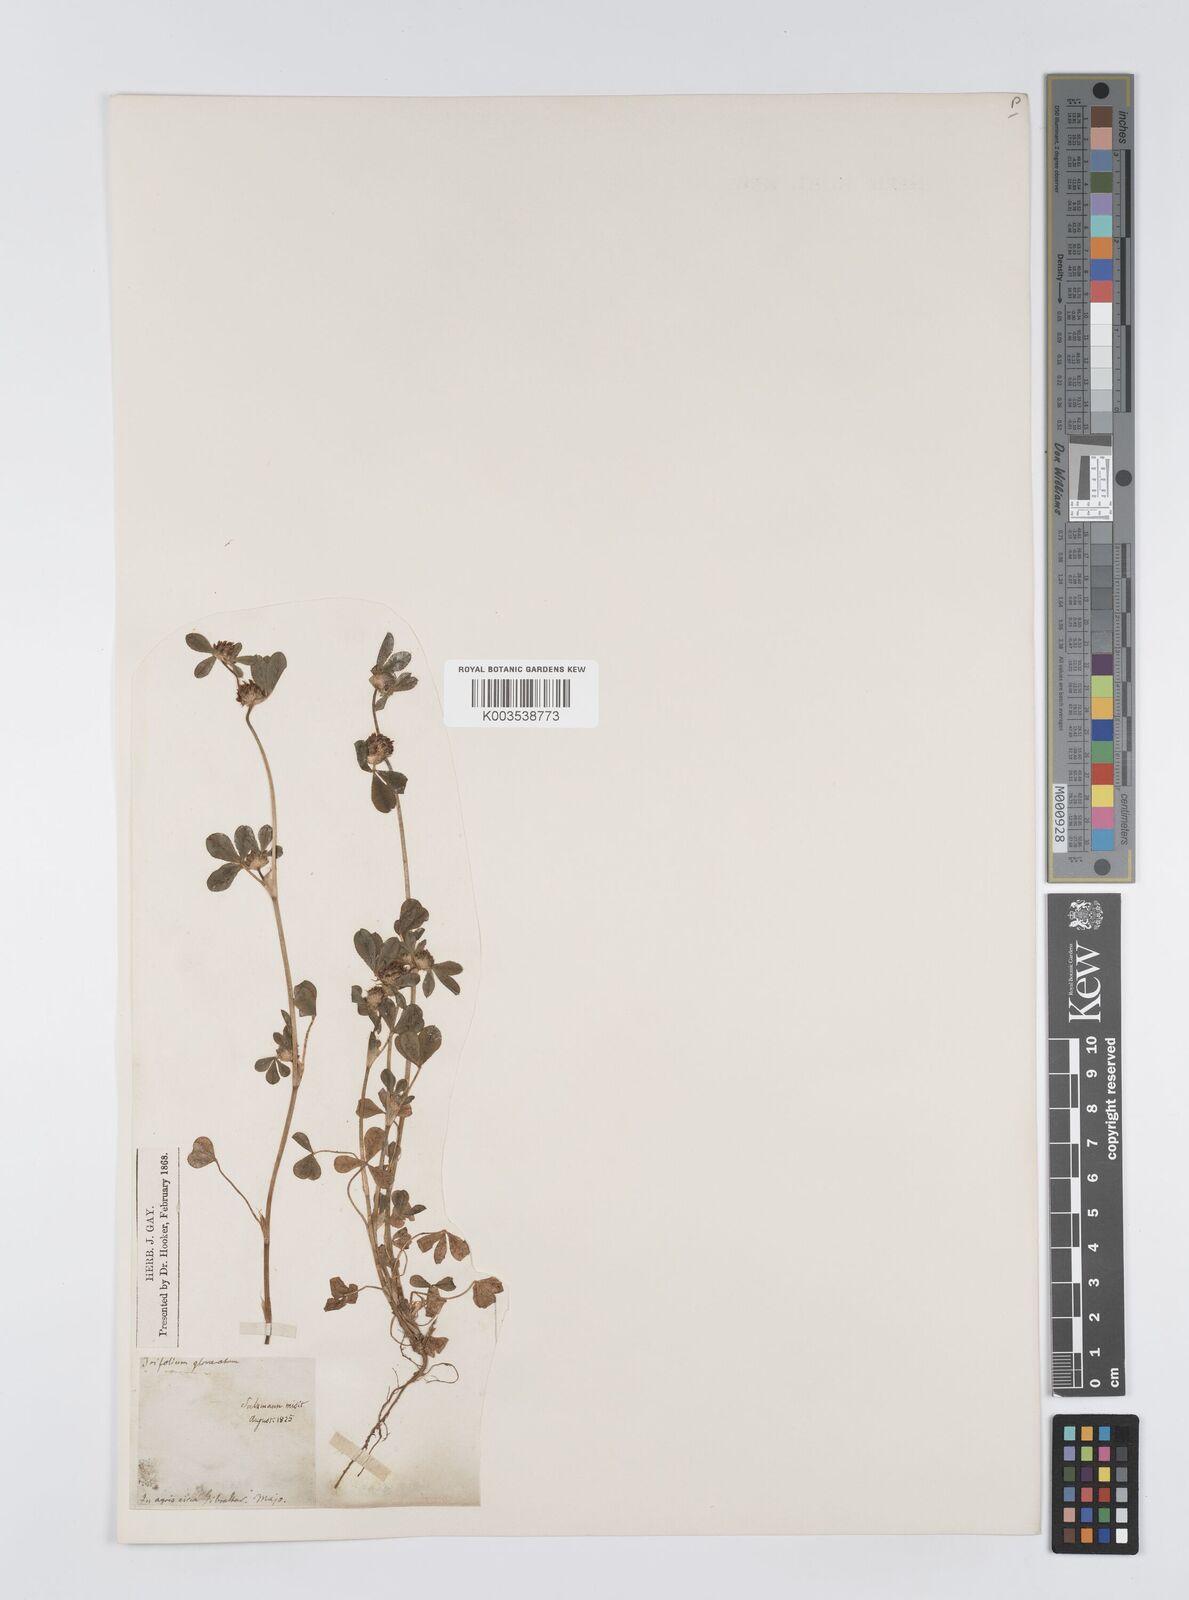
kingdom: Plantae
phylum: Tracheophyta
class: Magnoliopsida
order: Fabales
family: Fabaceae
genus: Trifolium
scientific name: Trifolium glomeratum
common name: Clustered clover
